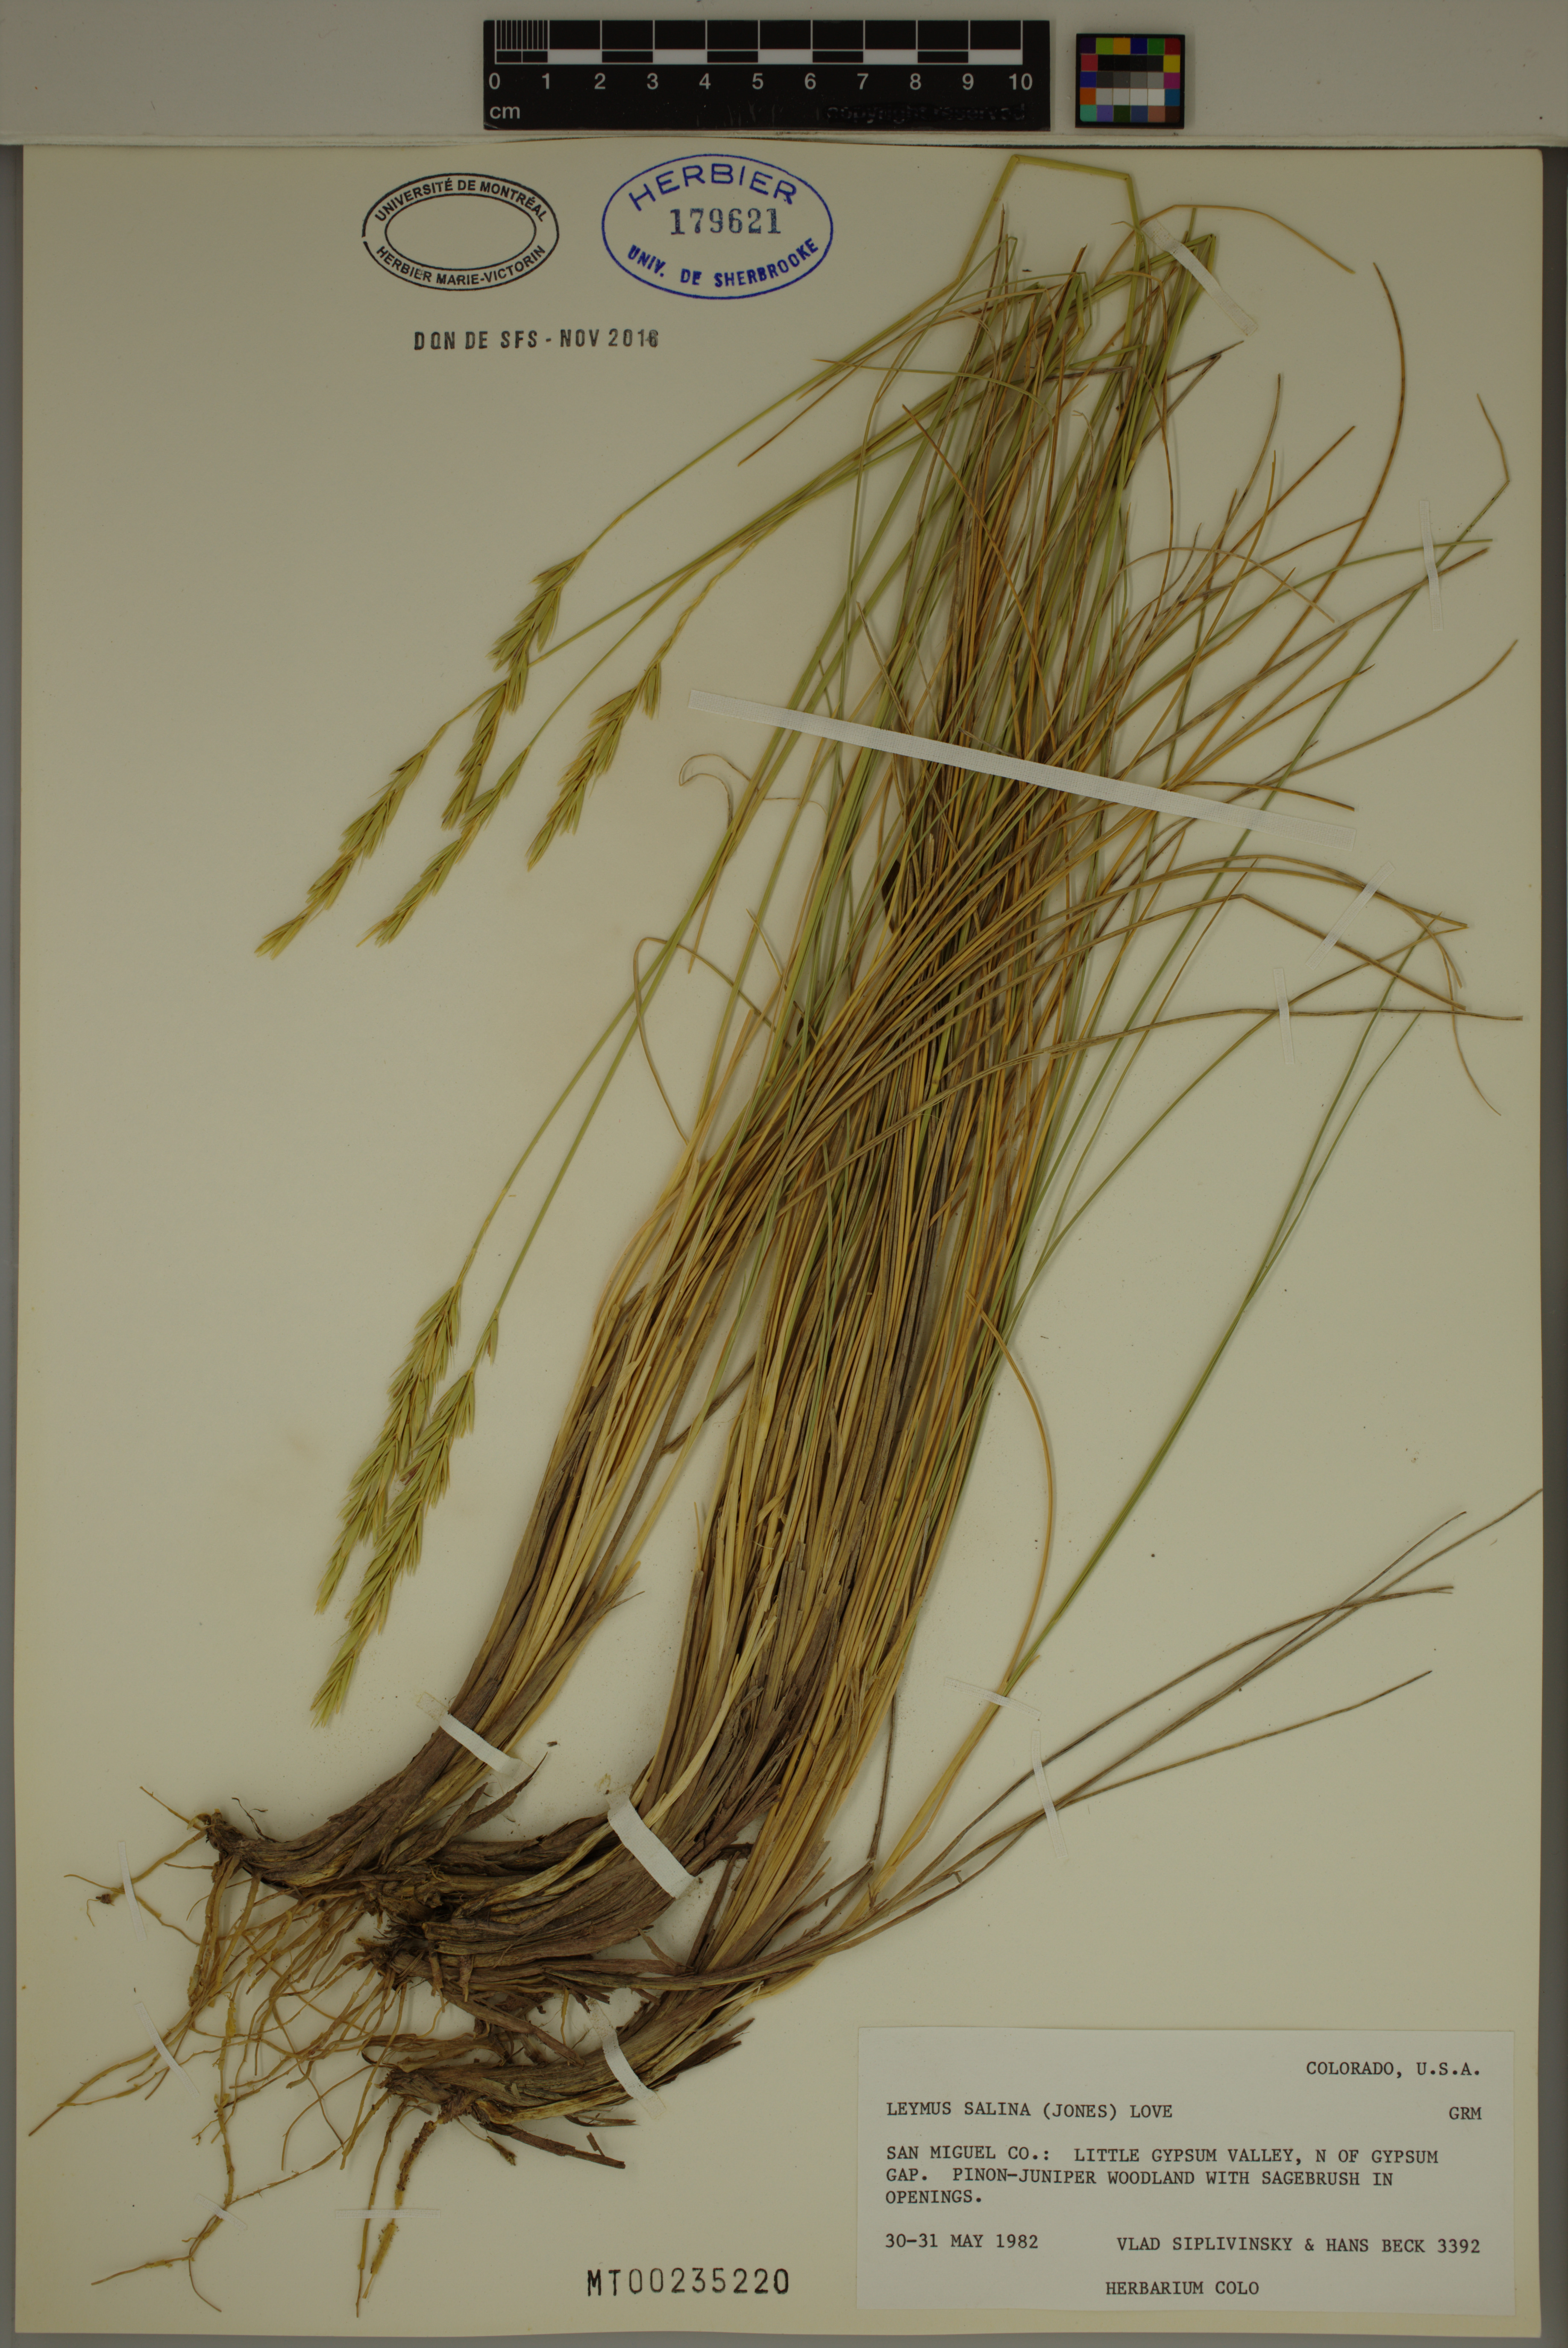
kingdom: Plantae
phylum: Tracheophyta
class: Liliopsida
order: Poales
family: Poaceae
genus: Leymus
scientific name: Leymus salina
